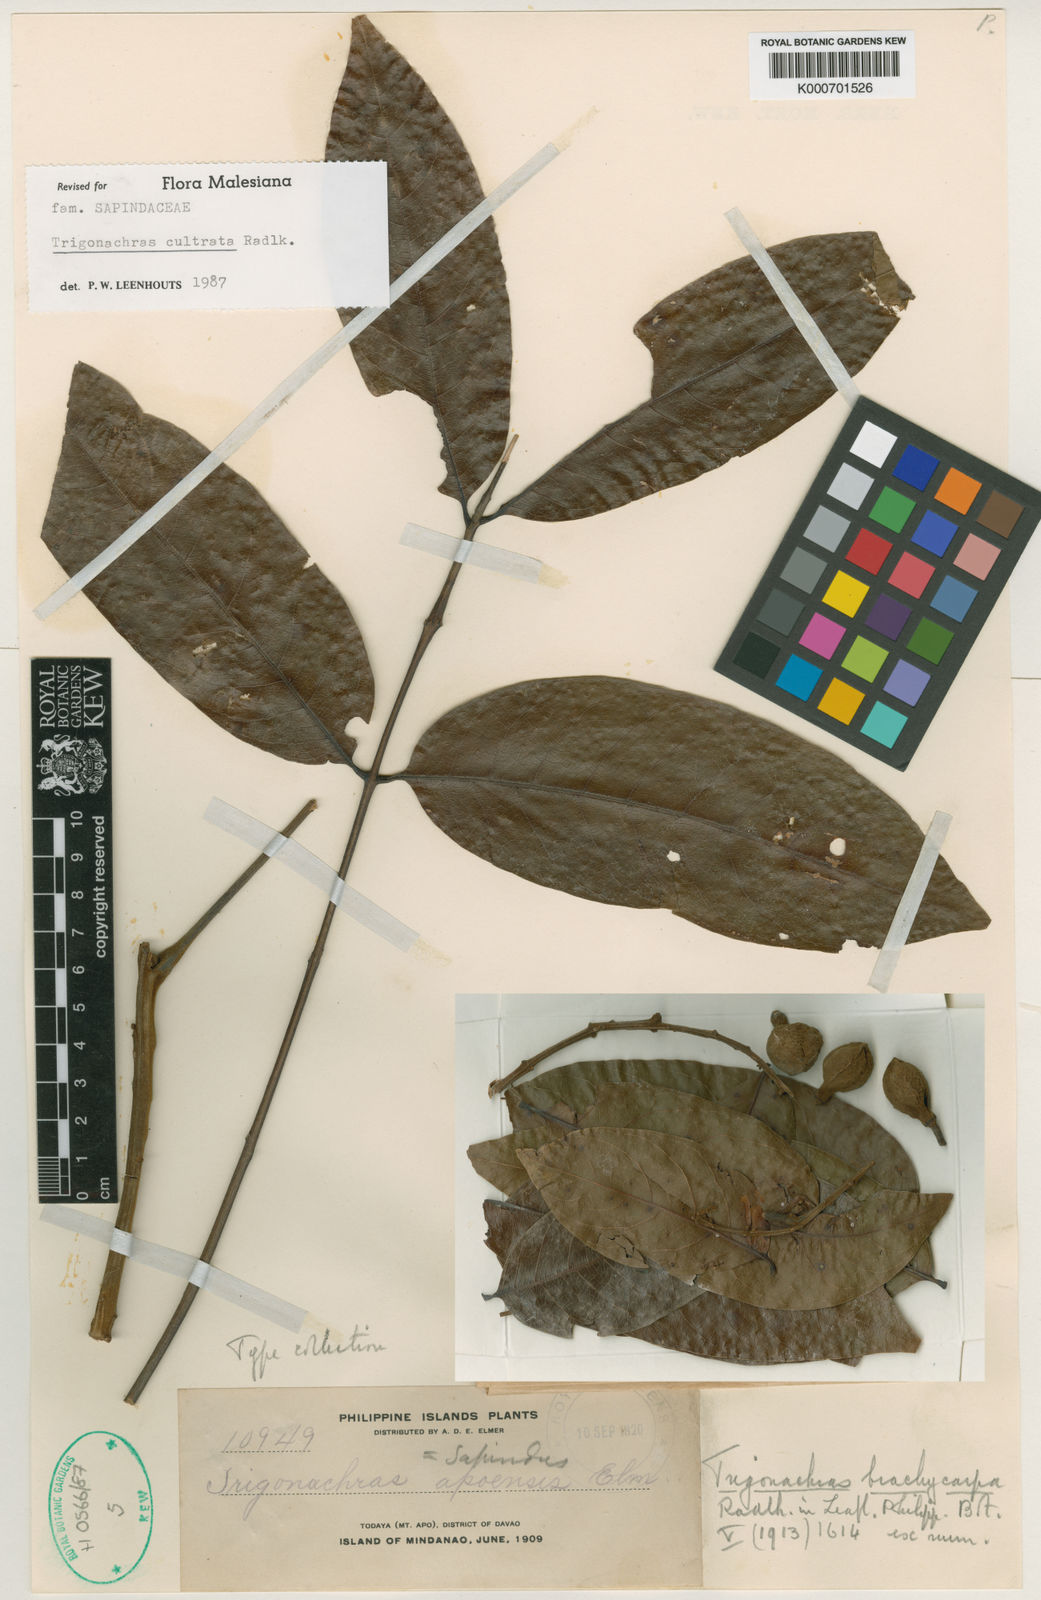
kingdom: Plantae
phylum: Tracheophyta
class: Magnoliopsida
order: Sapindales
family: Sapindaceae
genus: Trigonachras
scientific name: Trigonachras cultrata
